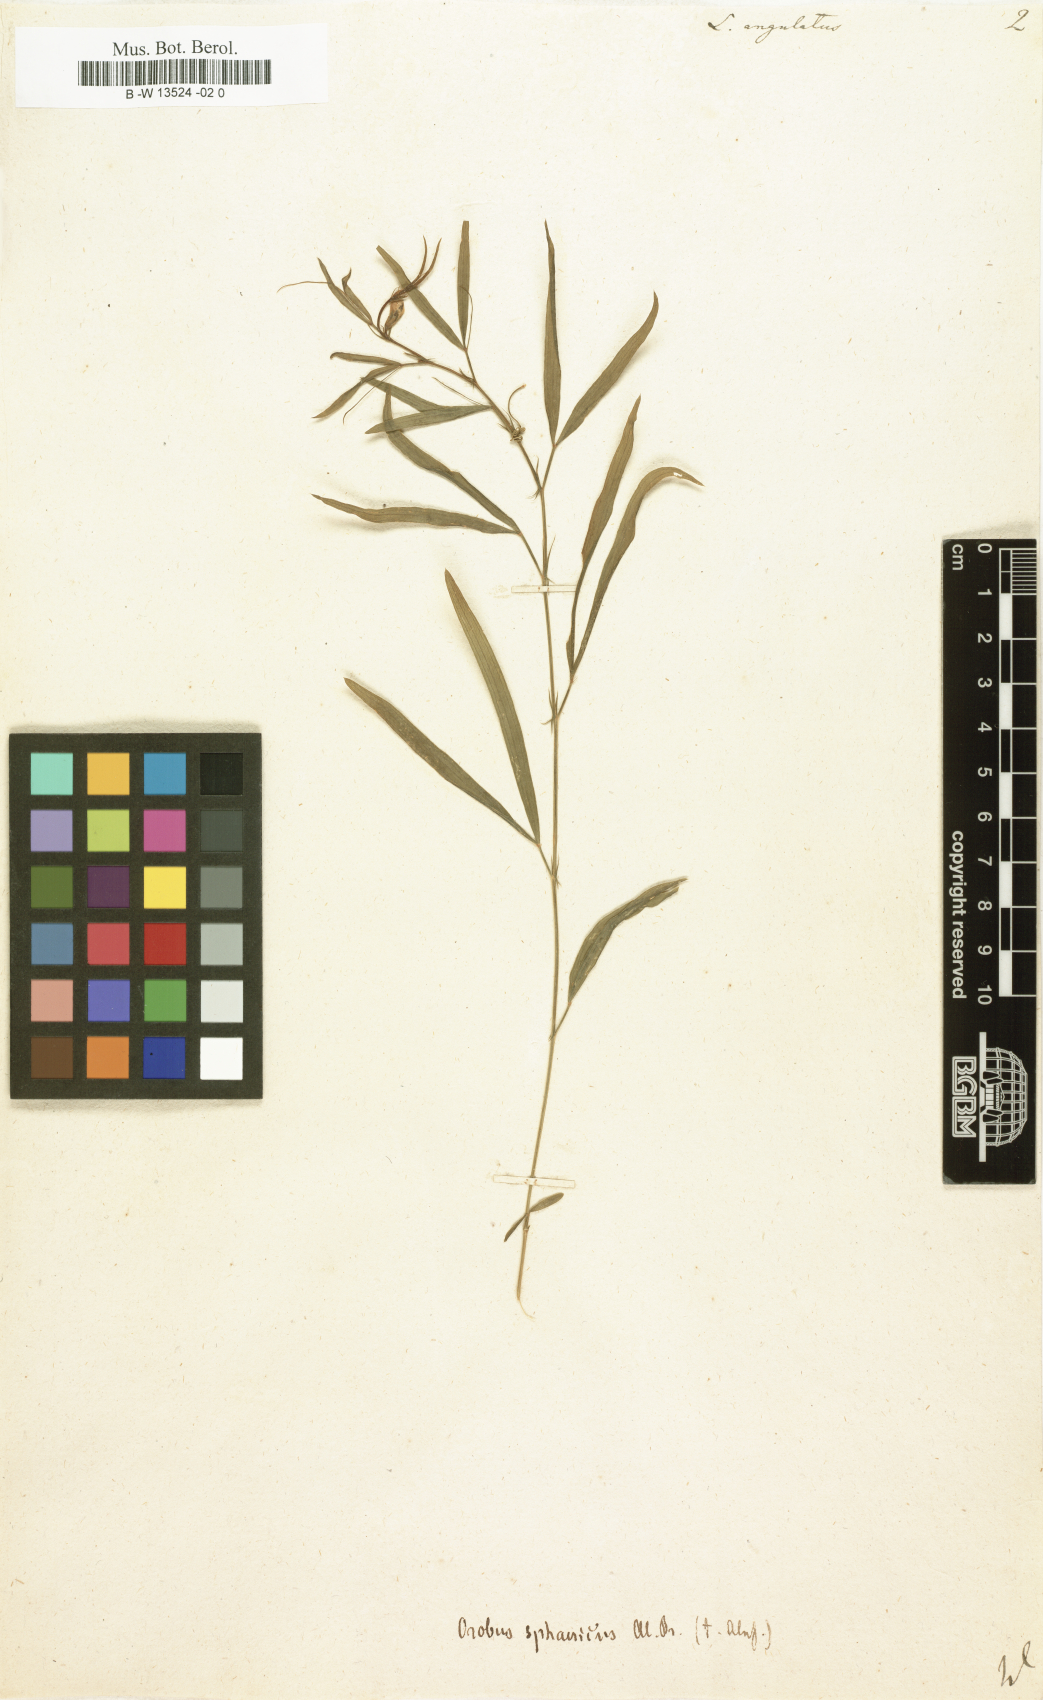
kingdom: Plantae
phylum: Tracheophyta
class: Magnoliopsida
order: Fabales
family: Fabaceae
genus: Lathyrus
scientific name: Lathyrus angulatus
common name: Angular pea
